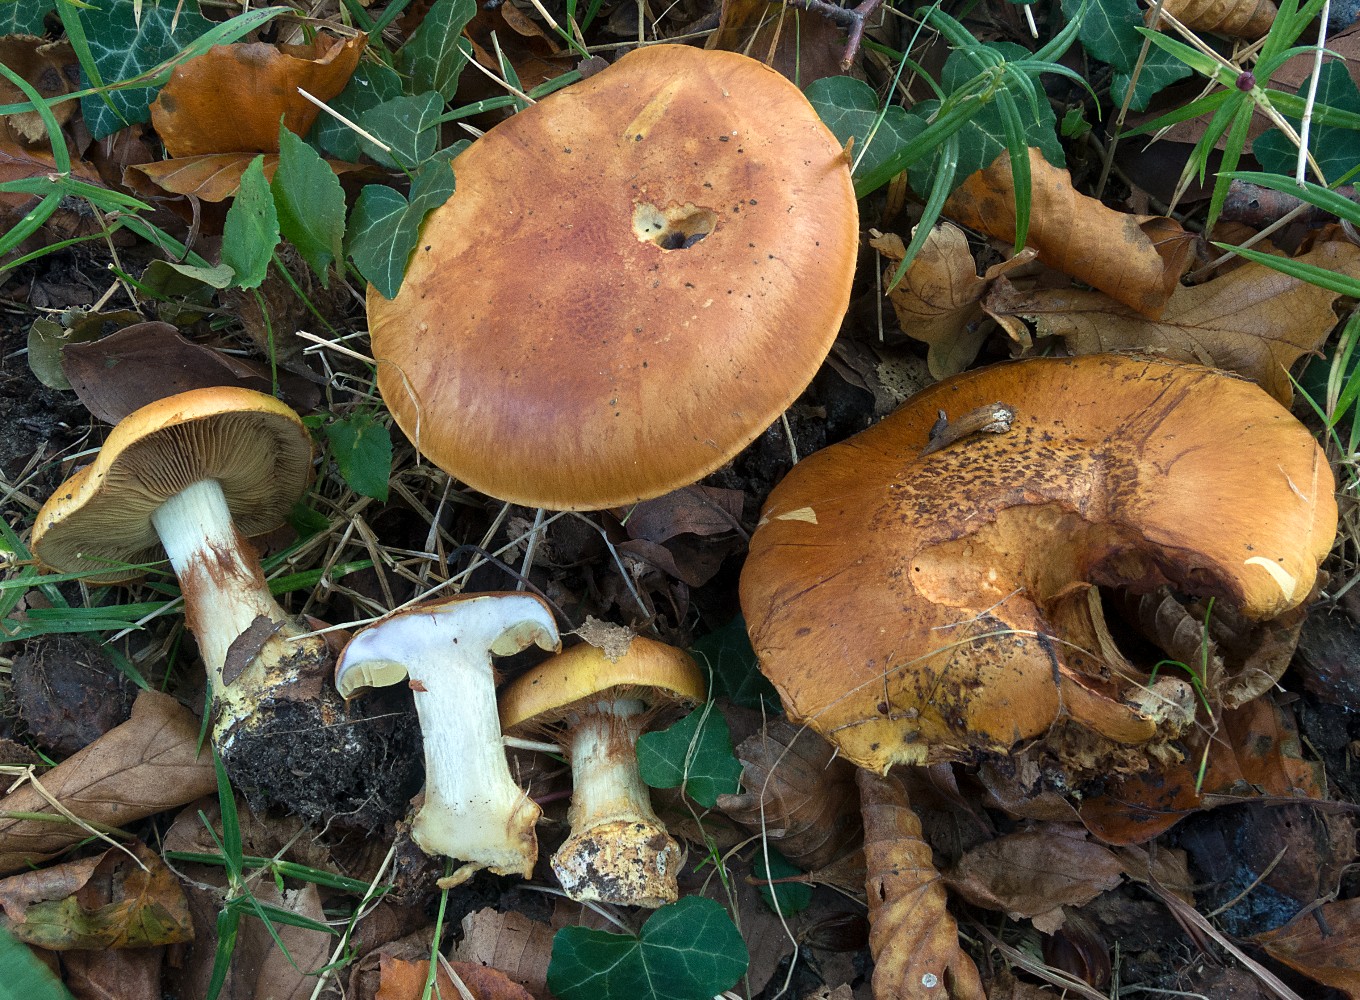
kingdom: Fungi
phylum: Basidiomycota
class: Agaricomycetes
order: Agaricales
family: Cortinariaceae
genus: Cortinarius
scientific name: Cortinarius bergeronii
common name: prægtig slørhat
